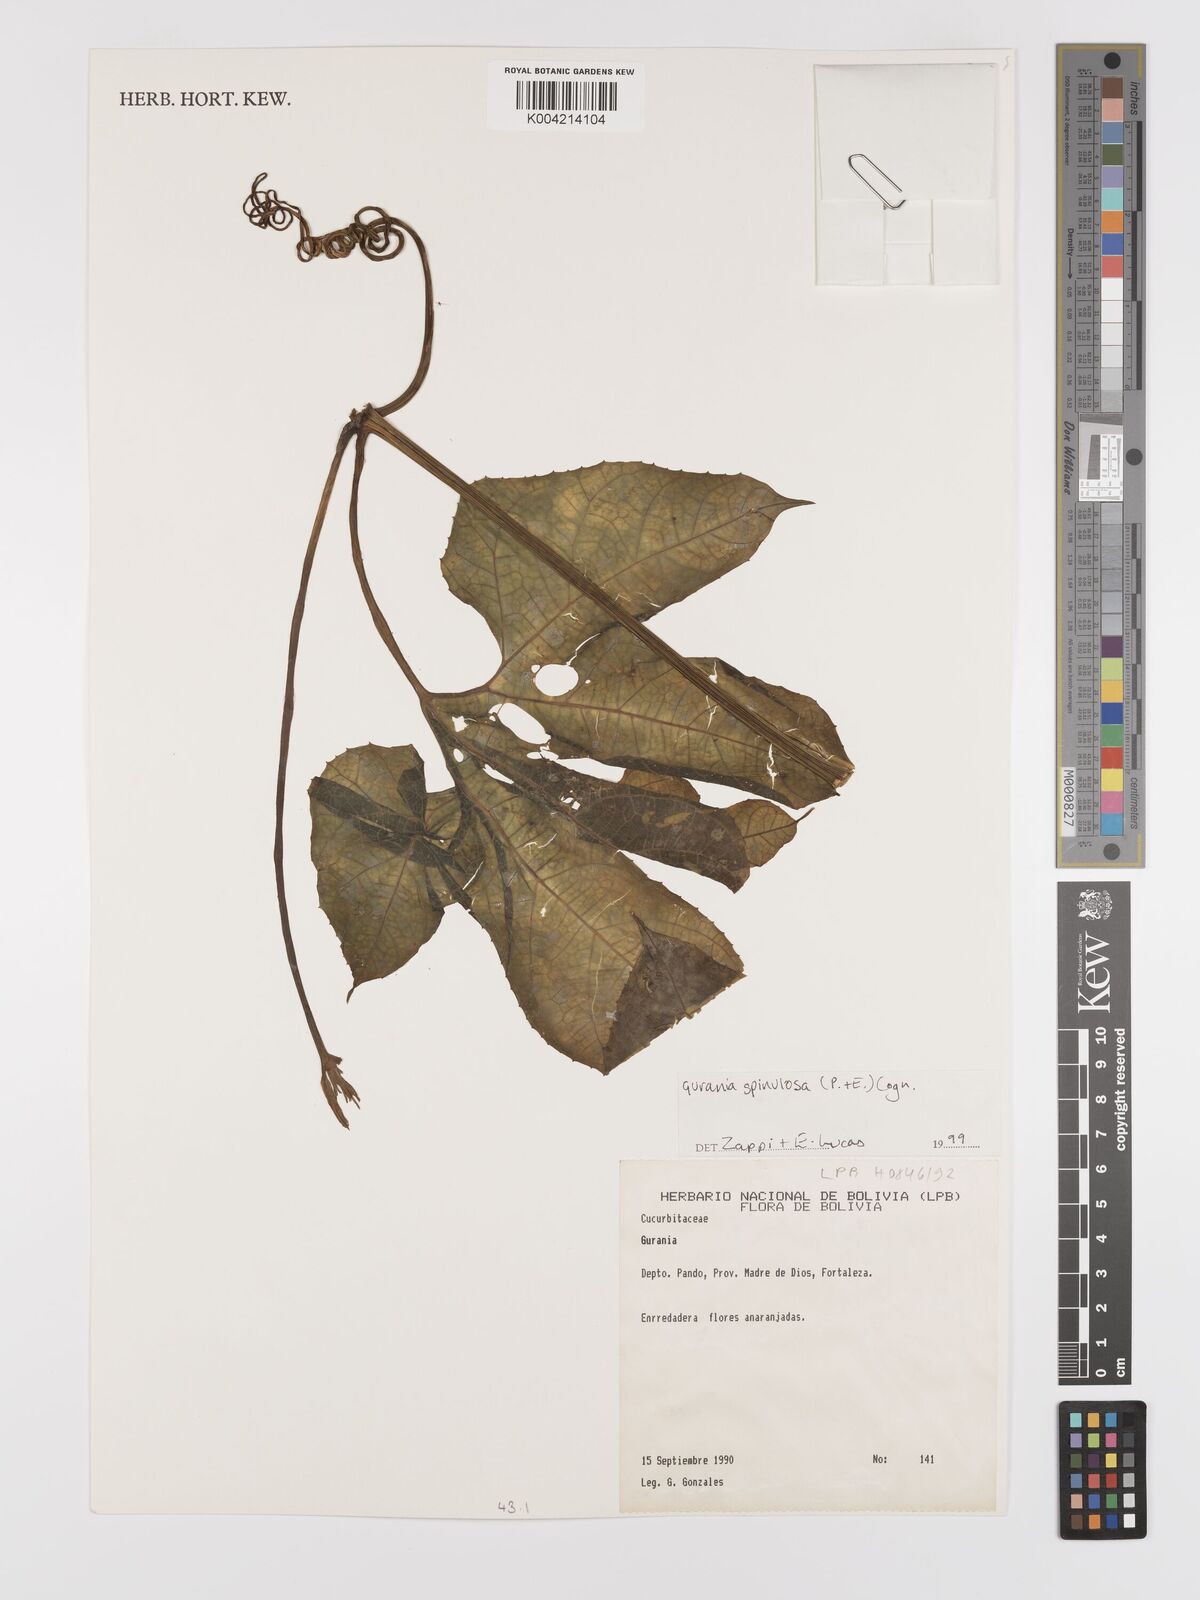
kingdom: Plantae
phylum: Tracheophyta
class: Magnoliopsida
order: Cucurbitales
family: Cucurbitaceae
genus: Gurania
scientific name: Gurania lobata
